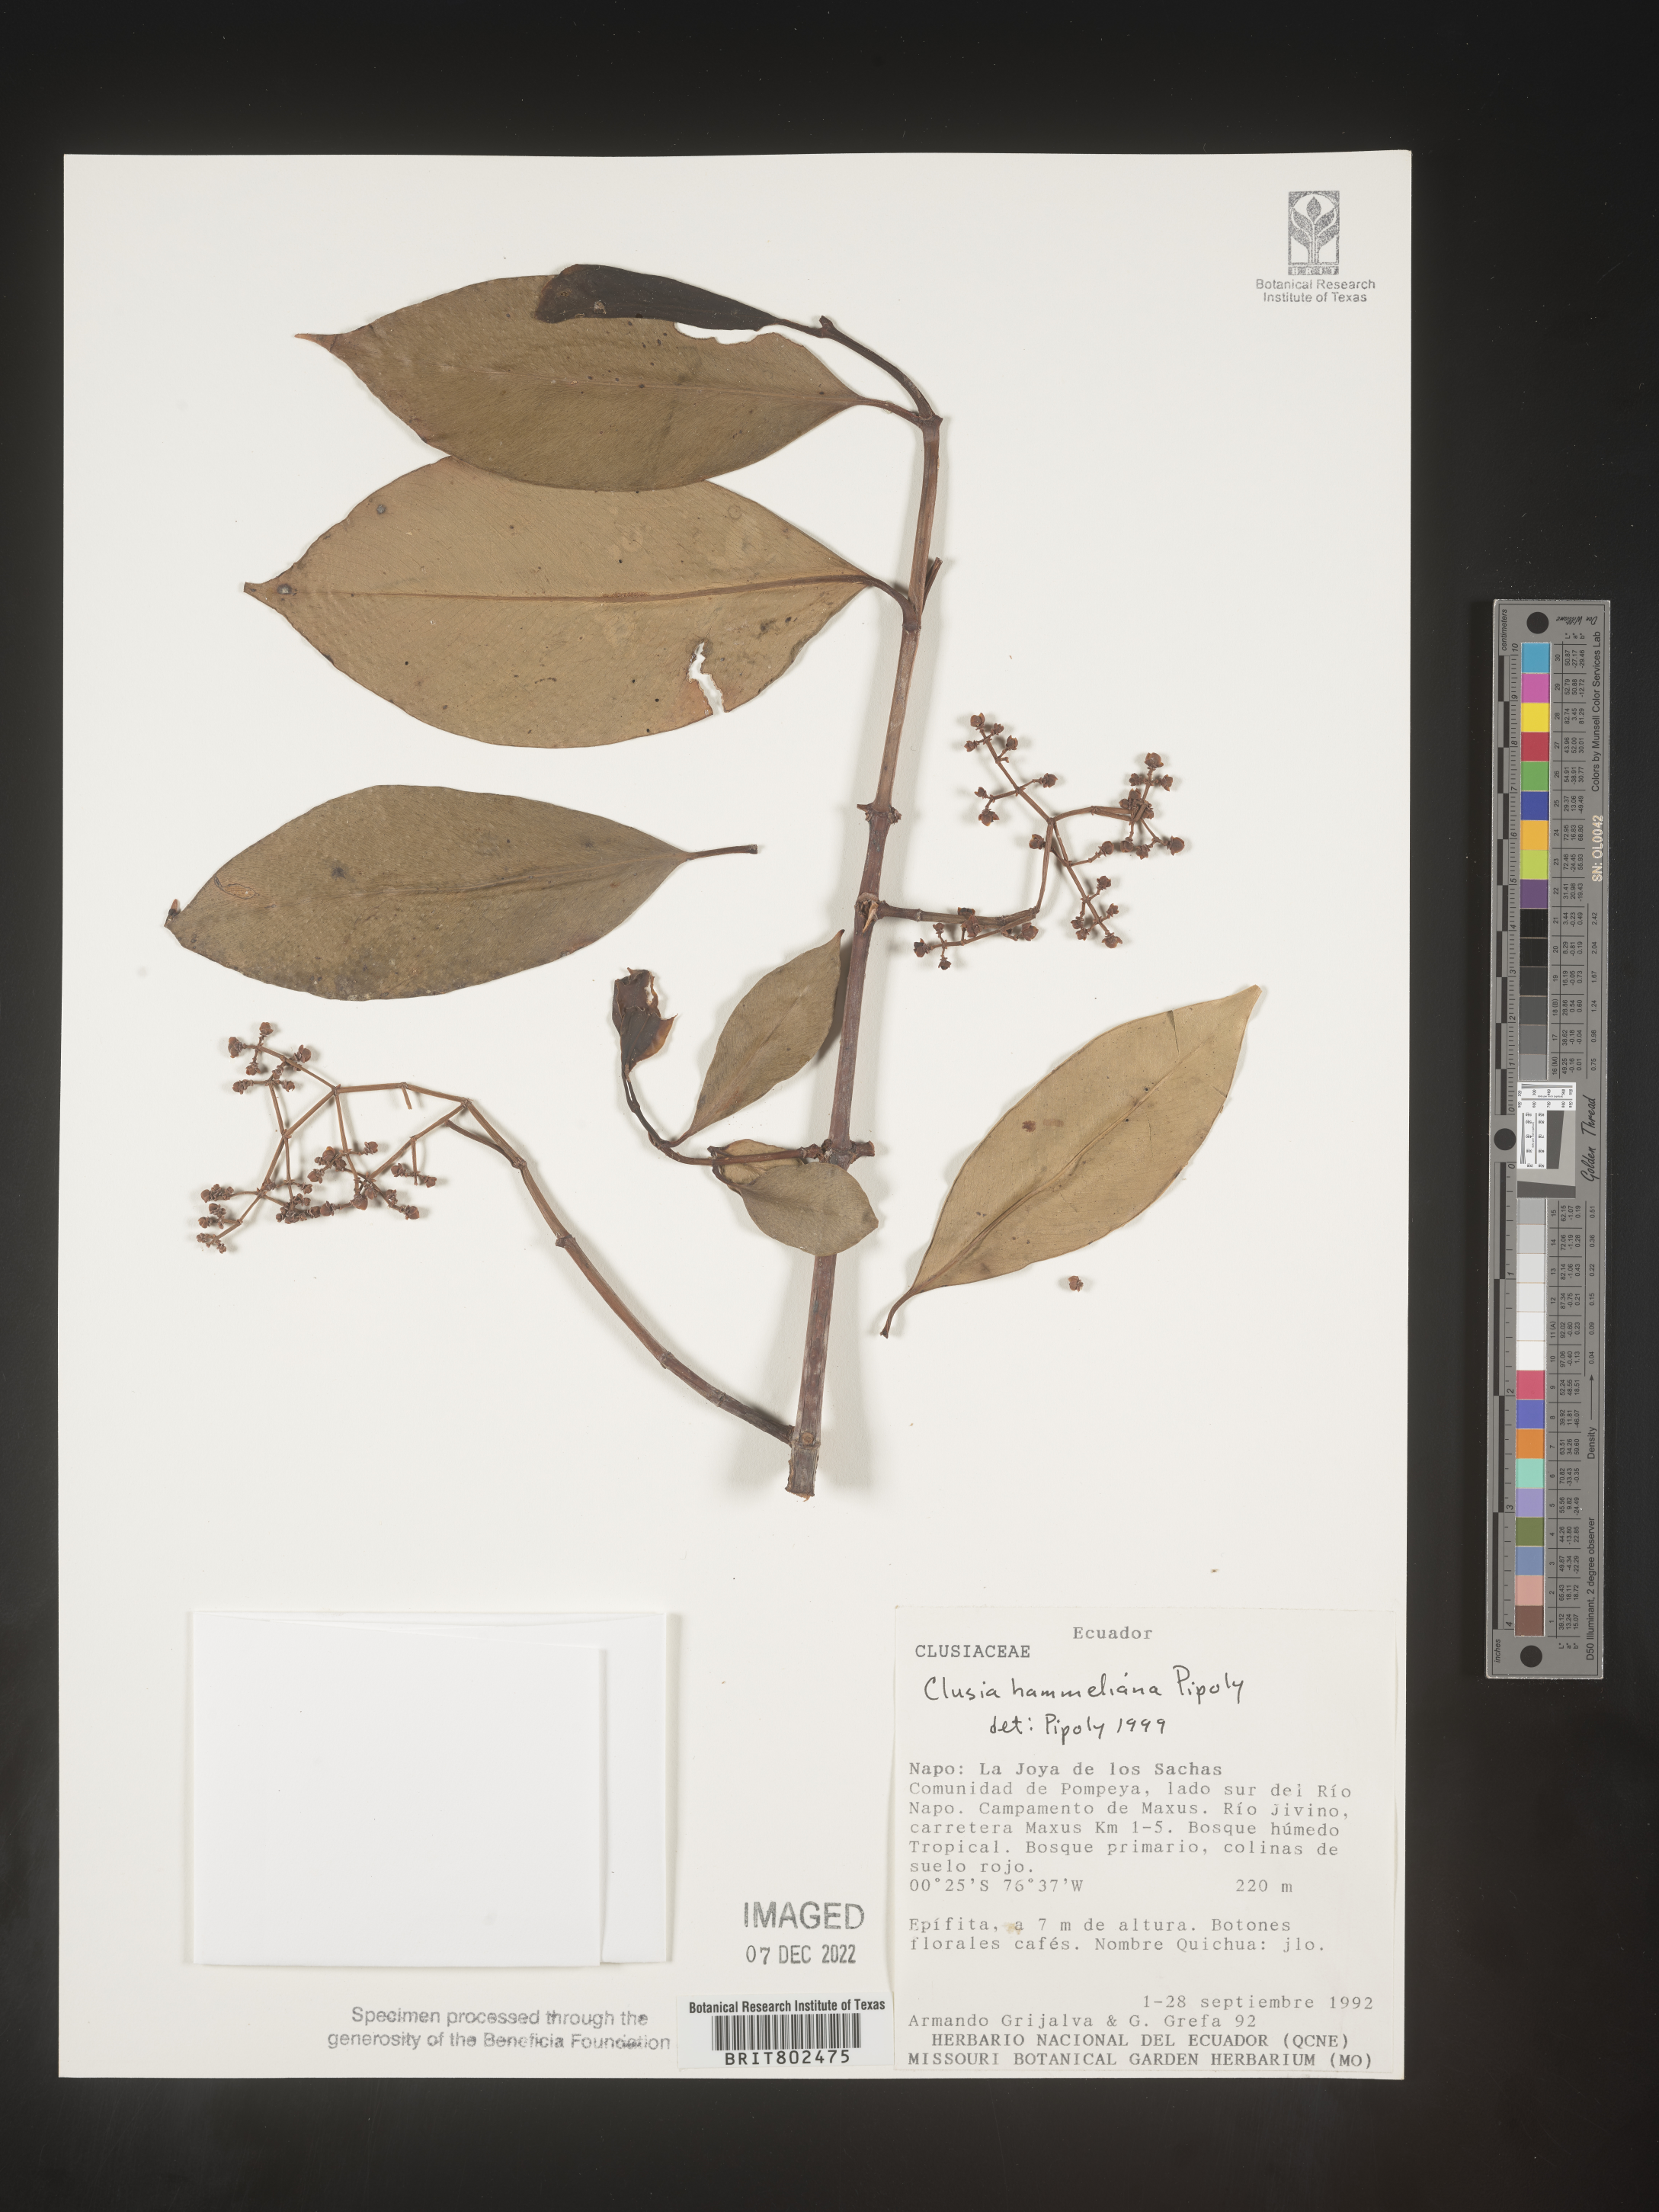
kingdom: Plantae
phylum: Tracheophyta
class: Magnoliopsida
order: Malpighiales
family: Clusiaceae
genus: Clusia
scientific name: Clusia hammeliana
